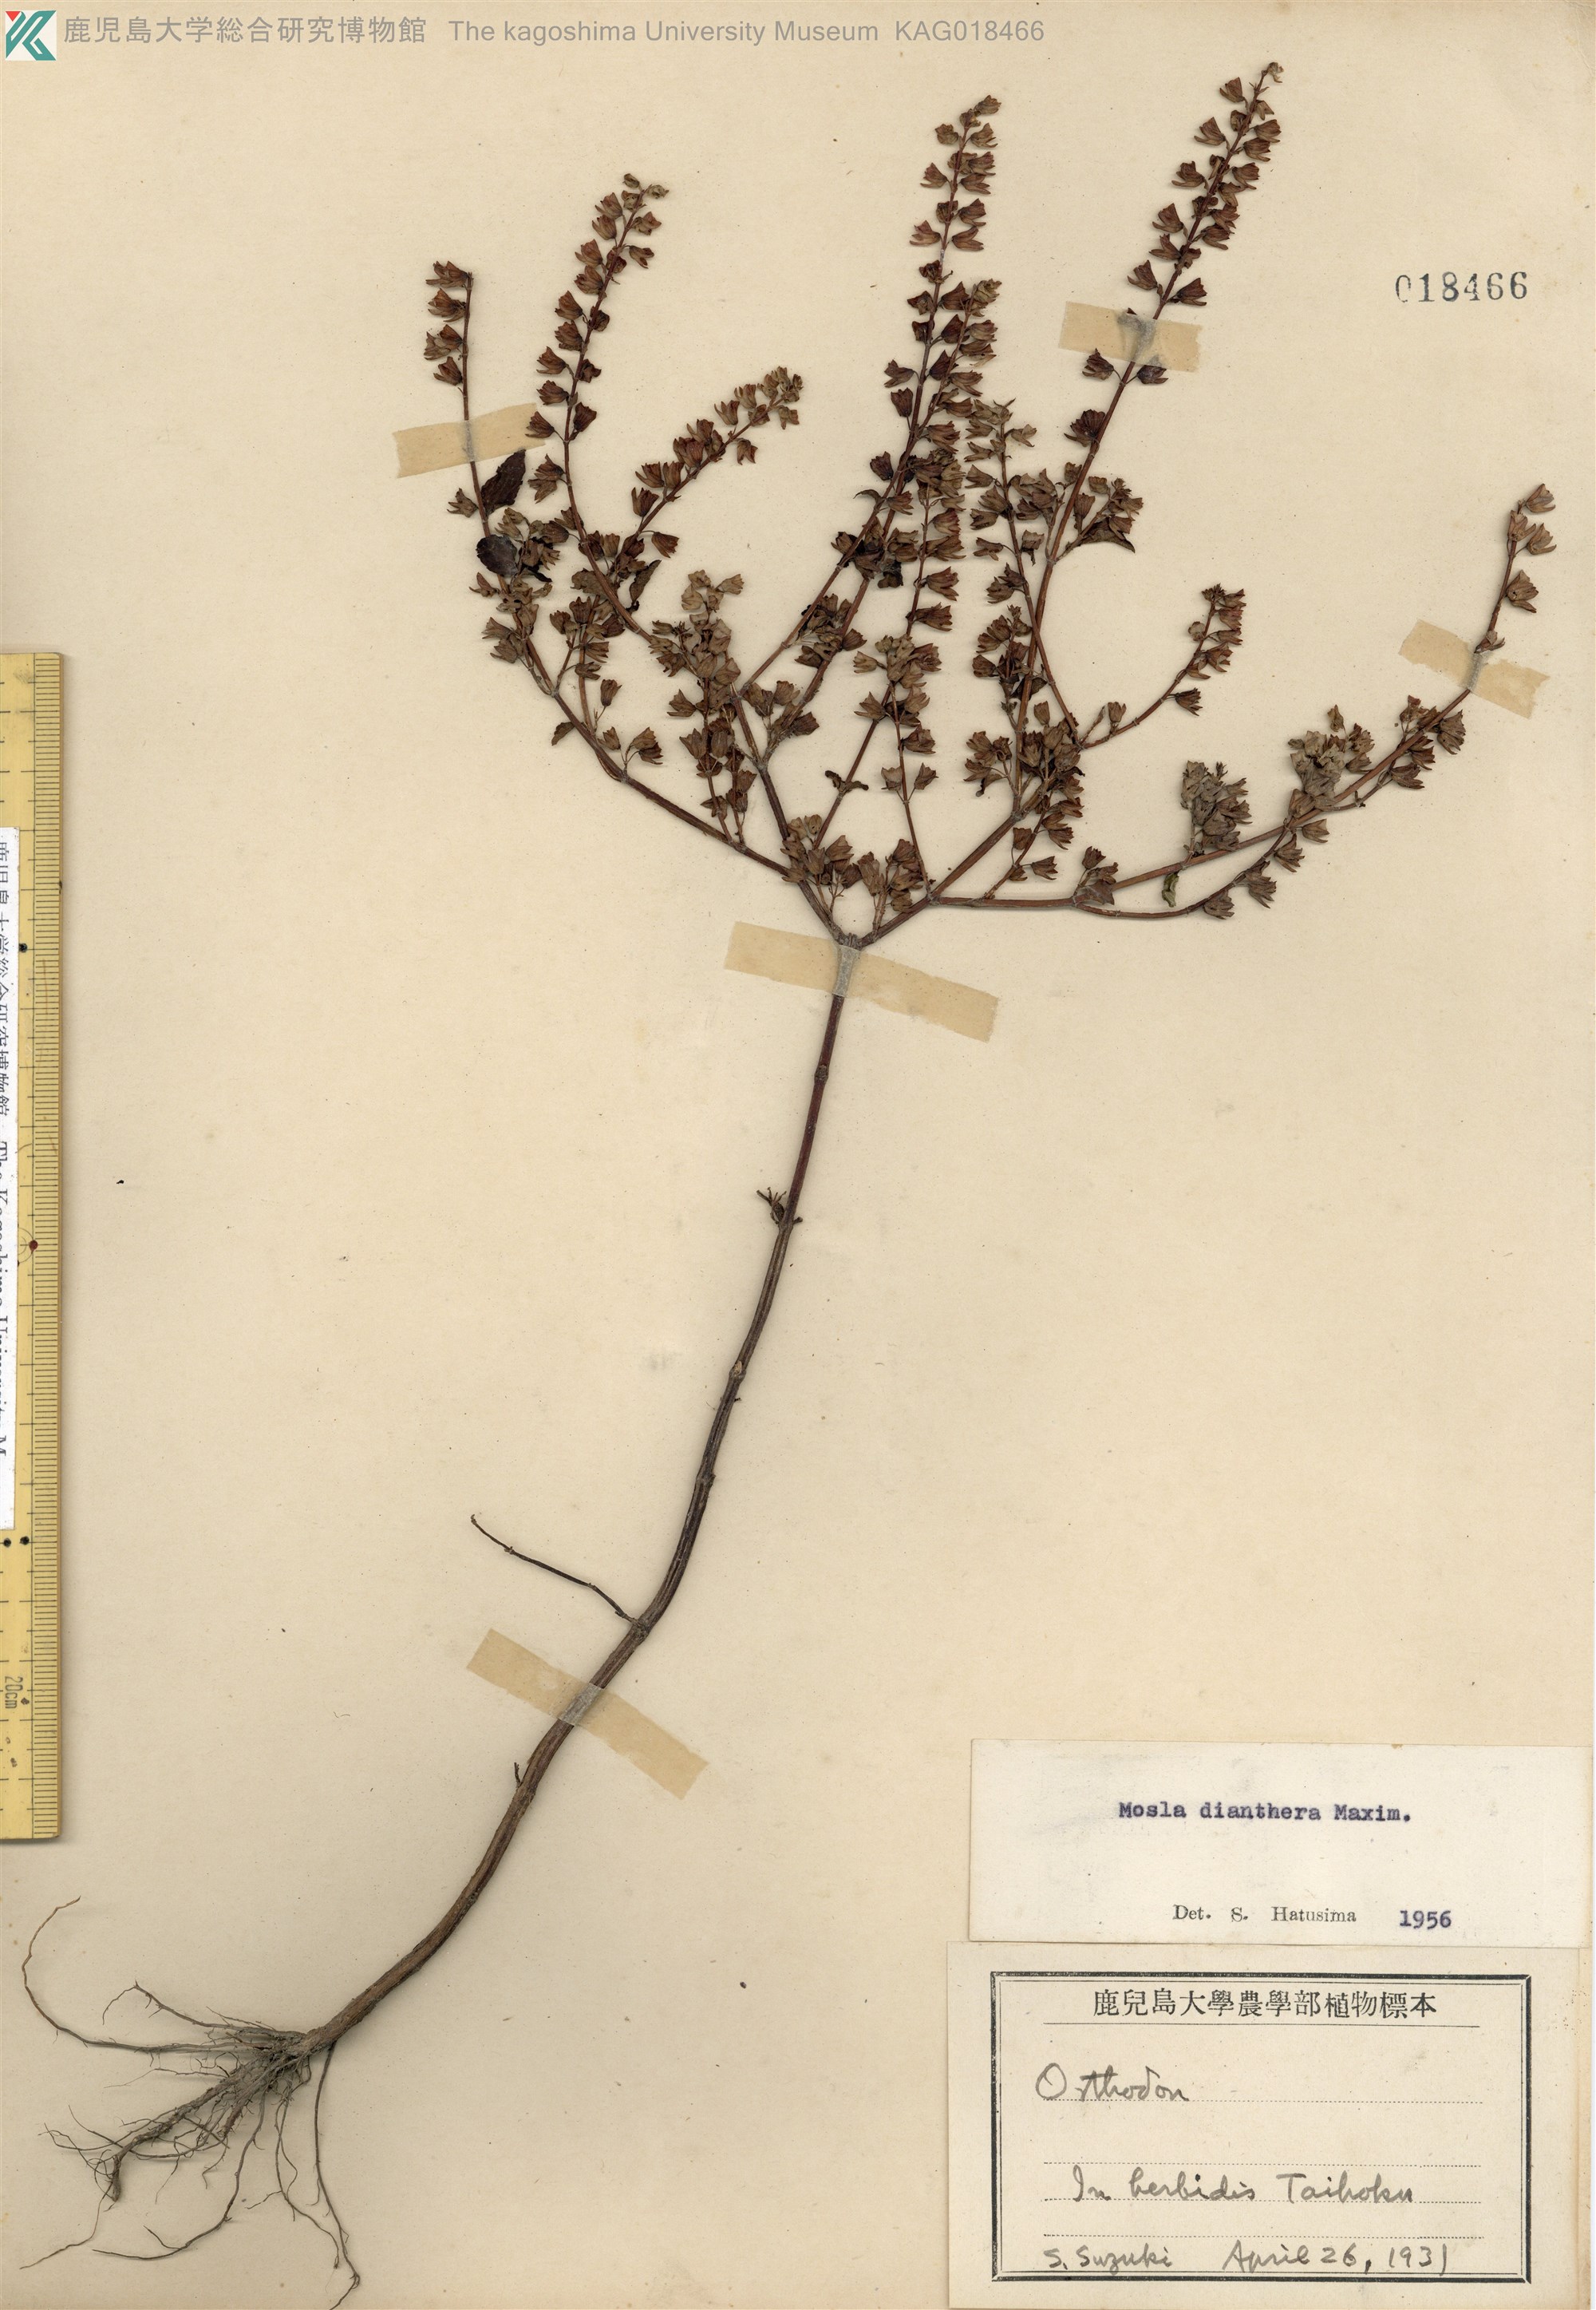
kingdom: Plantae
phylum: Tracheophyta
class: Magnoliopsida
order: Lamiales
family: Lamiaceae
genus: Mosla
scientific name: Mosla dianthera
